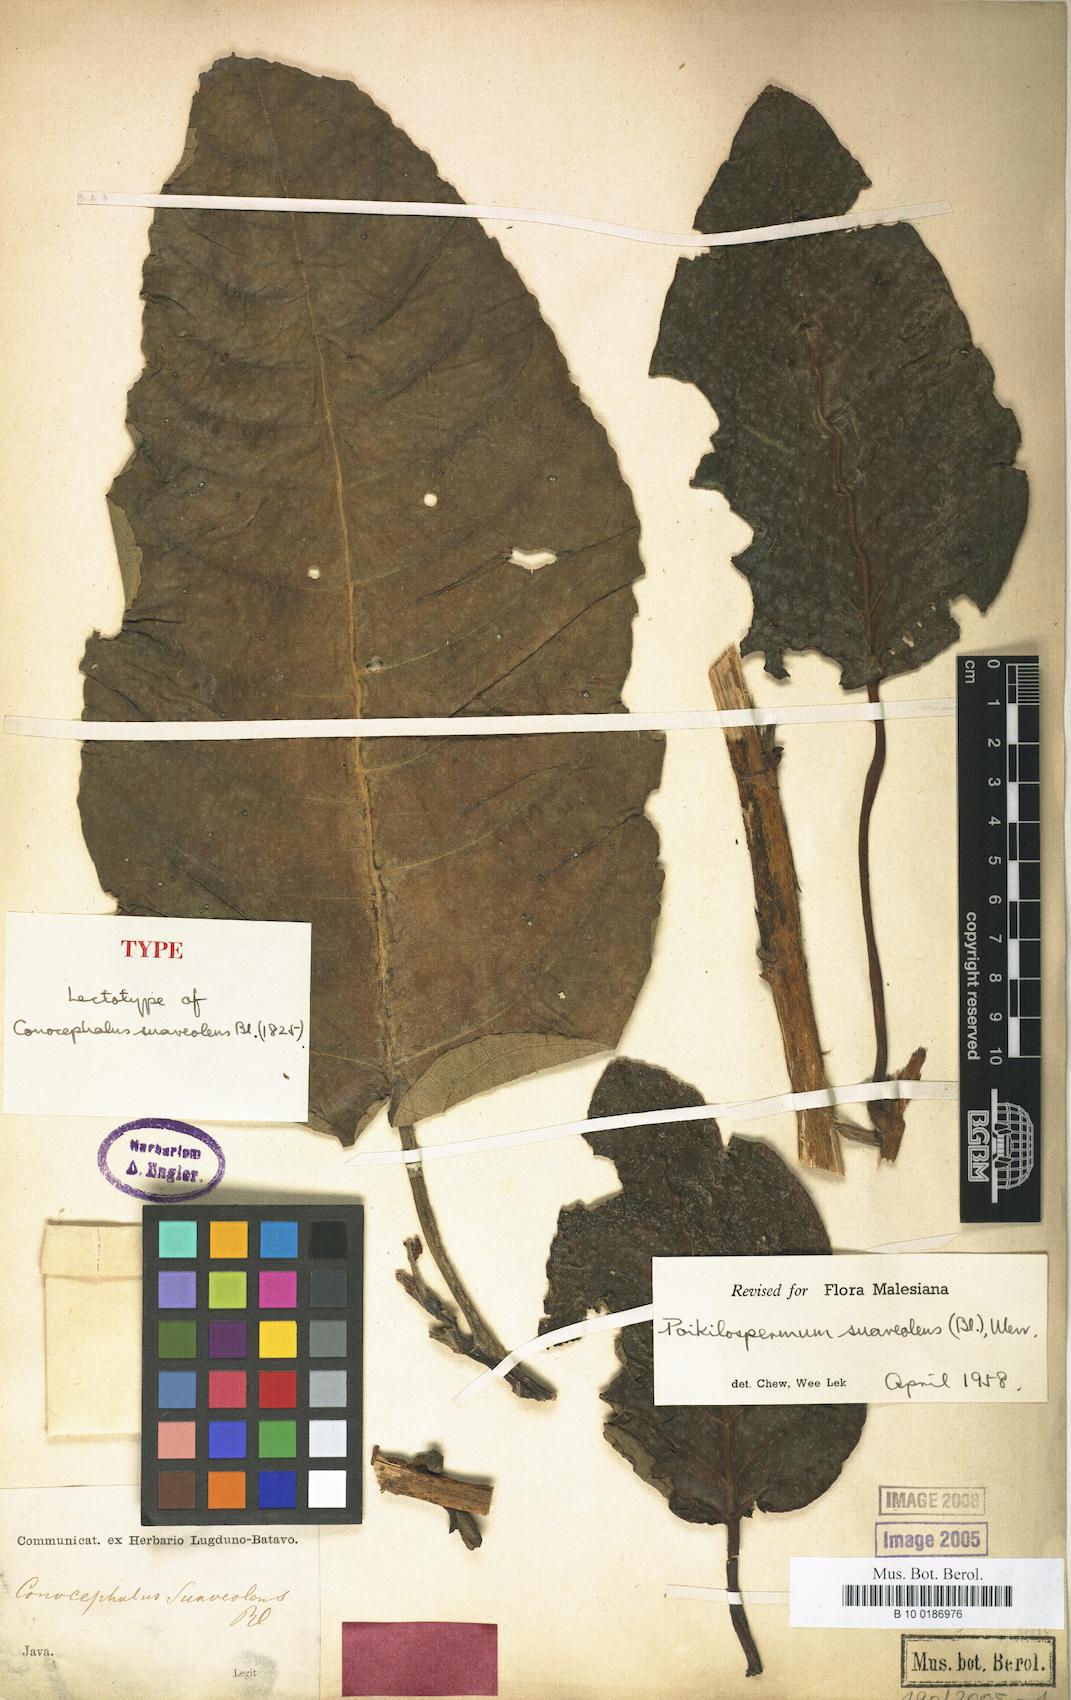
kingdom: Plantae
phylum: Tracheophyta
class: Magnoliopsida
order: Rosales
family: Urticaceae
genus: Poikilospermum
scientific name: Poikilospermum suaveolens
